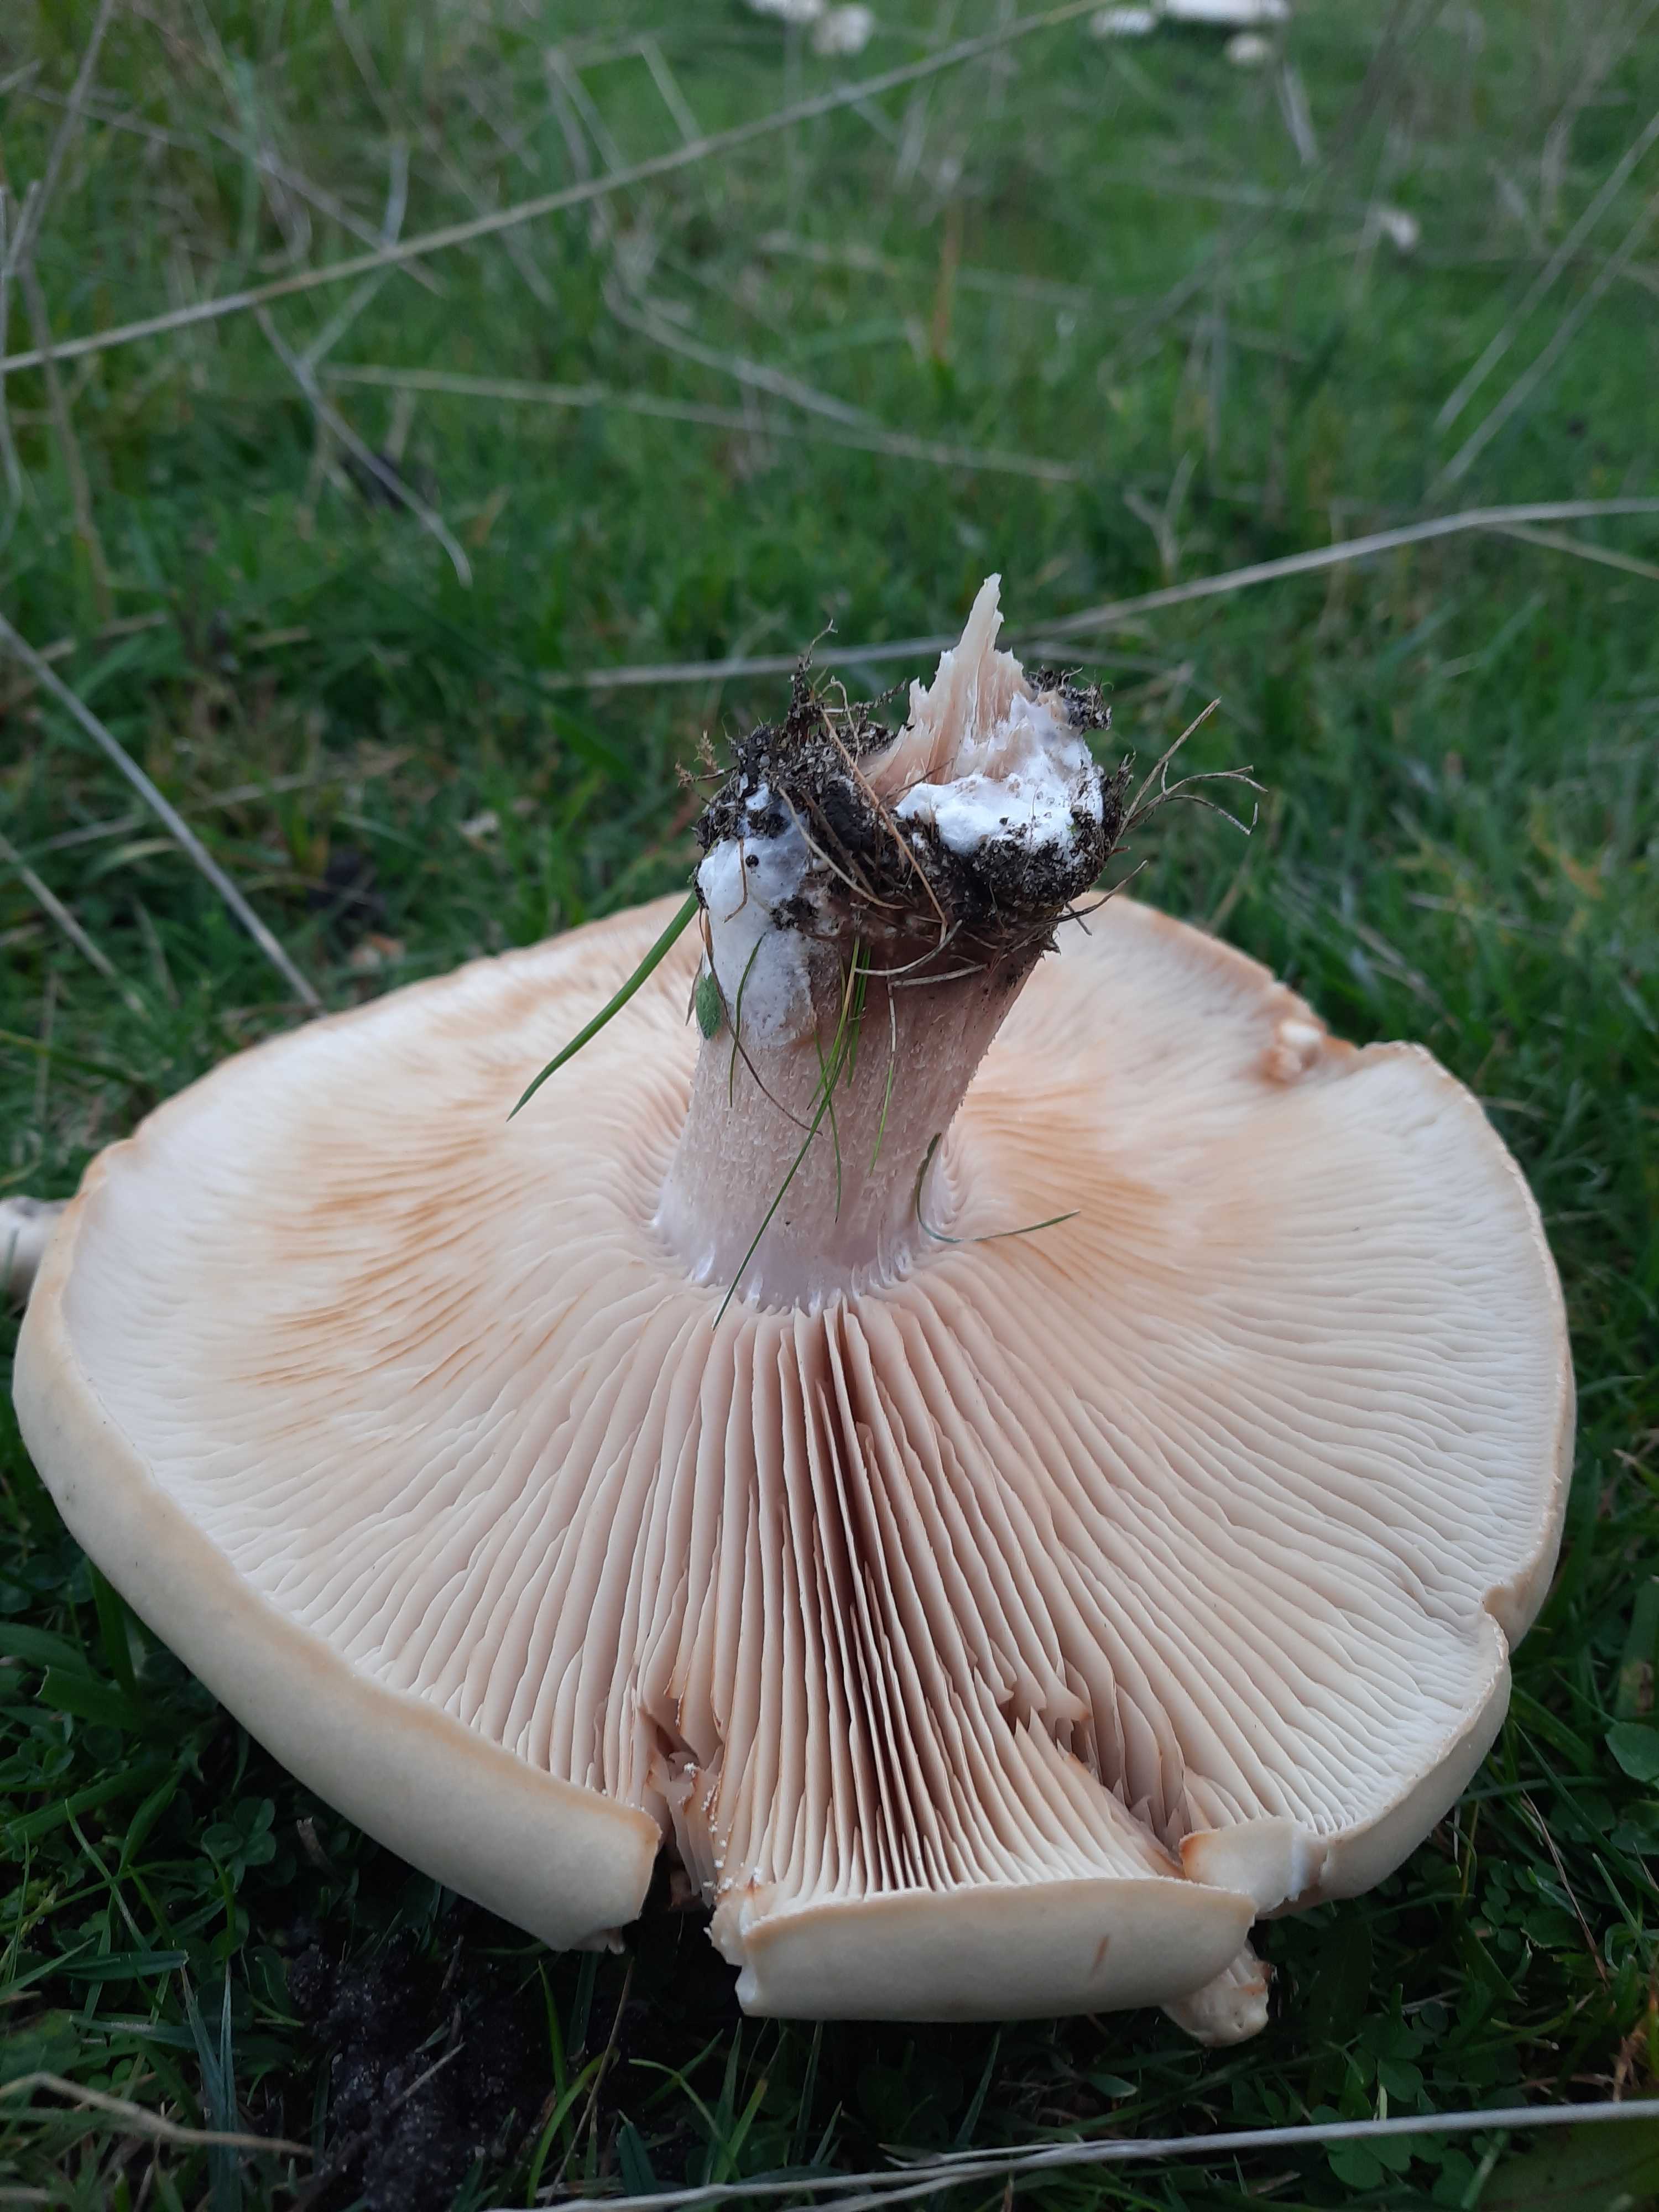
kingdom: Fungi
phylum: Basidiomycota
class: Agaricomycetes
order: Agaricales
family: Tricholomataceae
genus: Lepista
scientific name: Lepista irina
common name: violduftende hekseringshat
